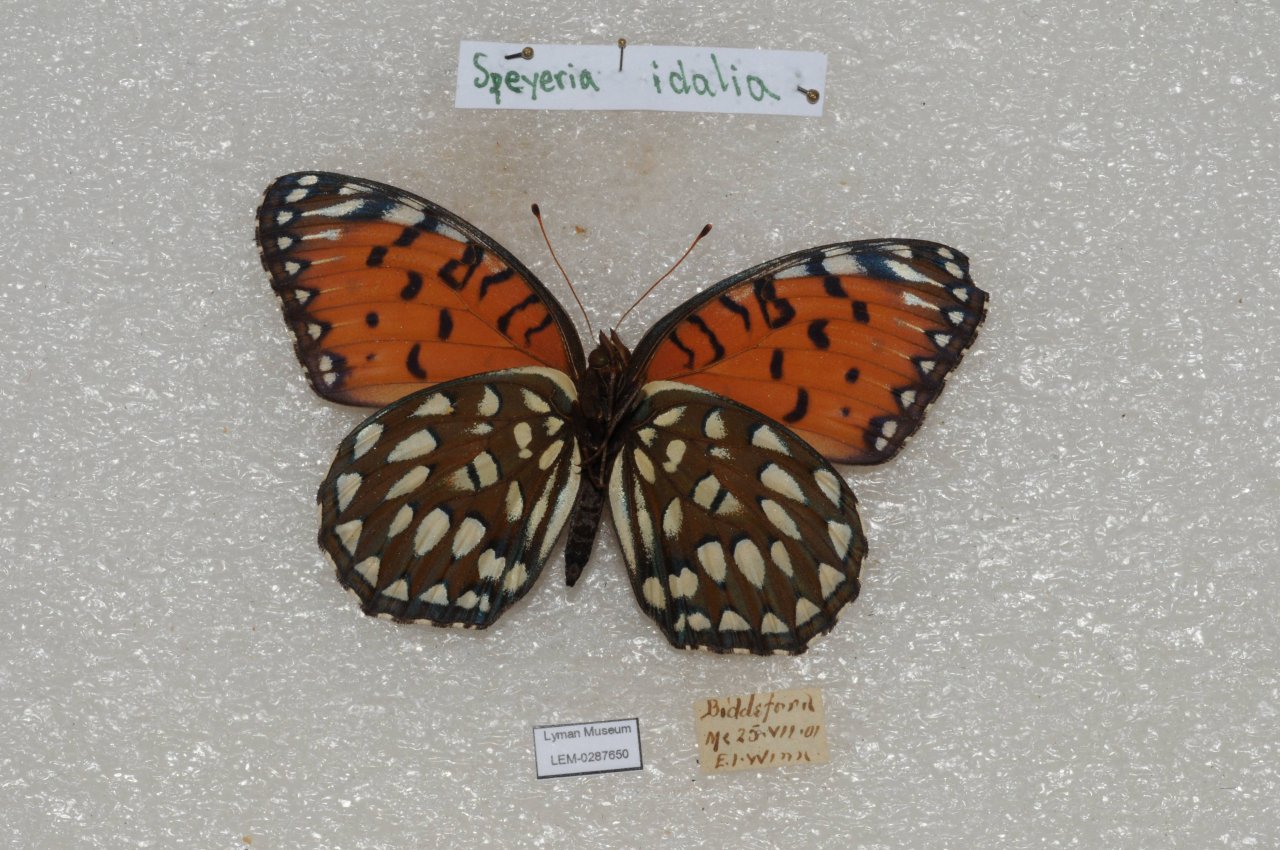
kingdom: Animalia
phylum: Arthropoda
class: Insecta
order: Lepidoptera
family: Nymphalidae
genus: Speyeria
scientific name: Speyeria idalia
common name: Regal Fritillary
